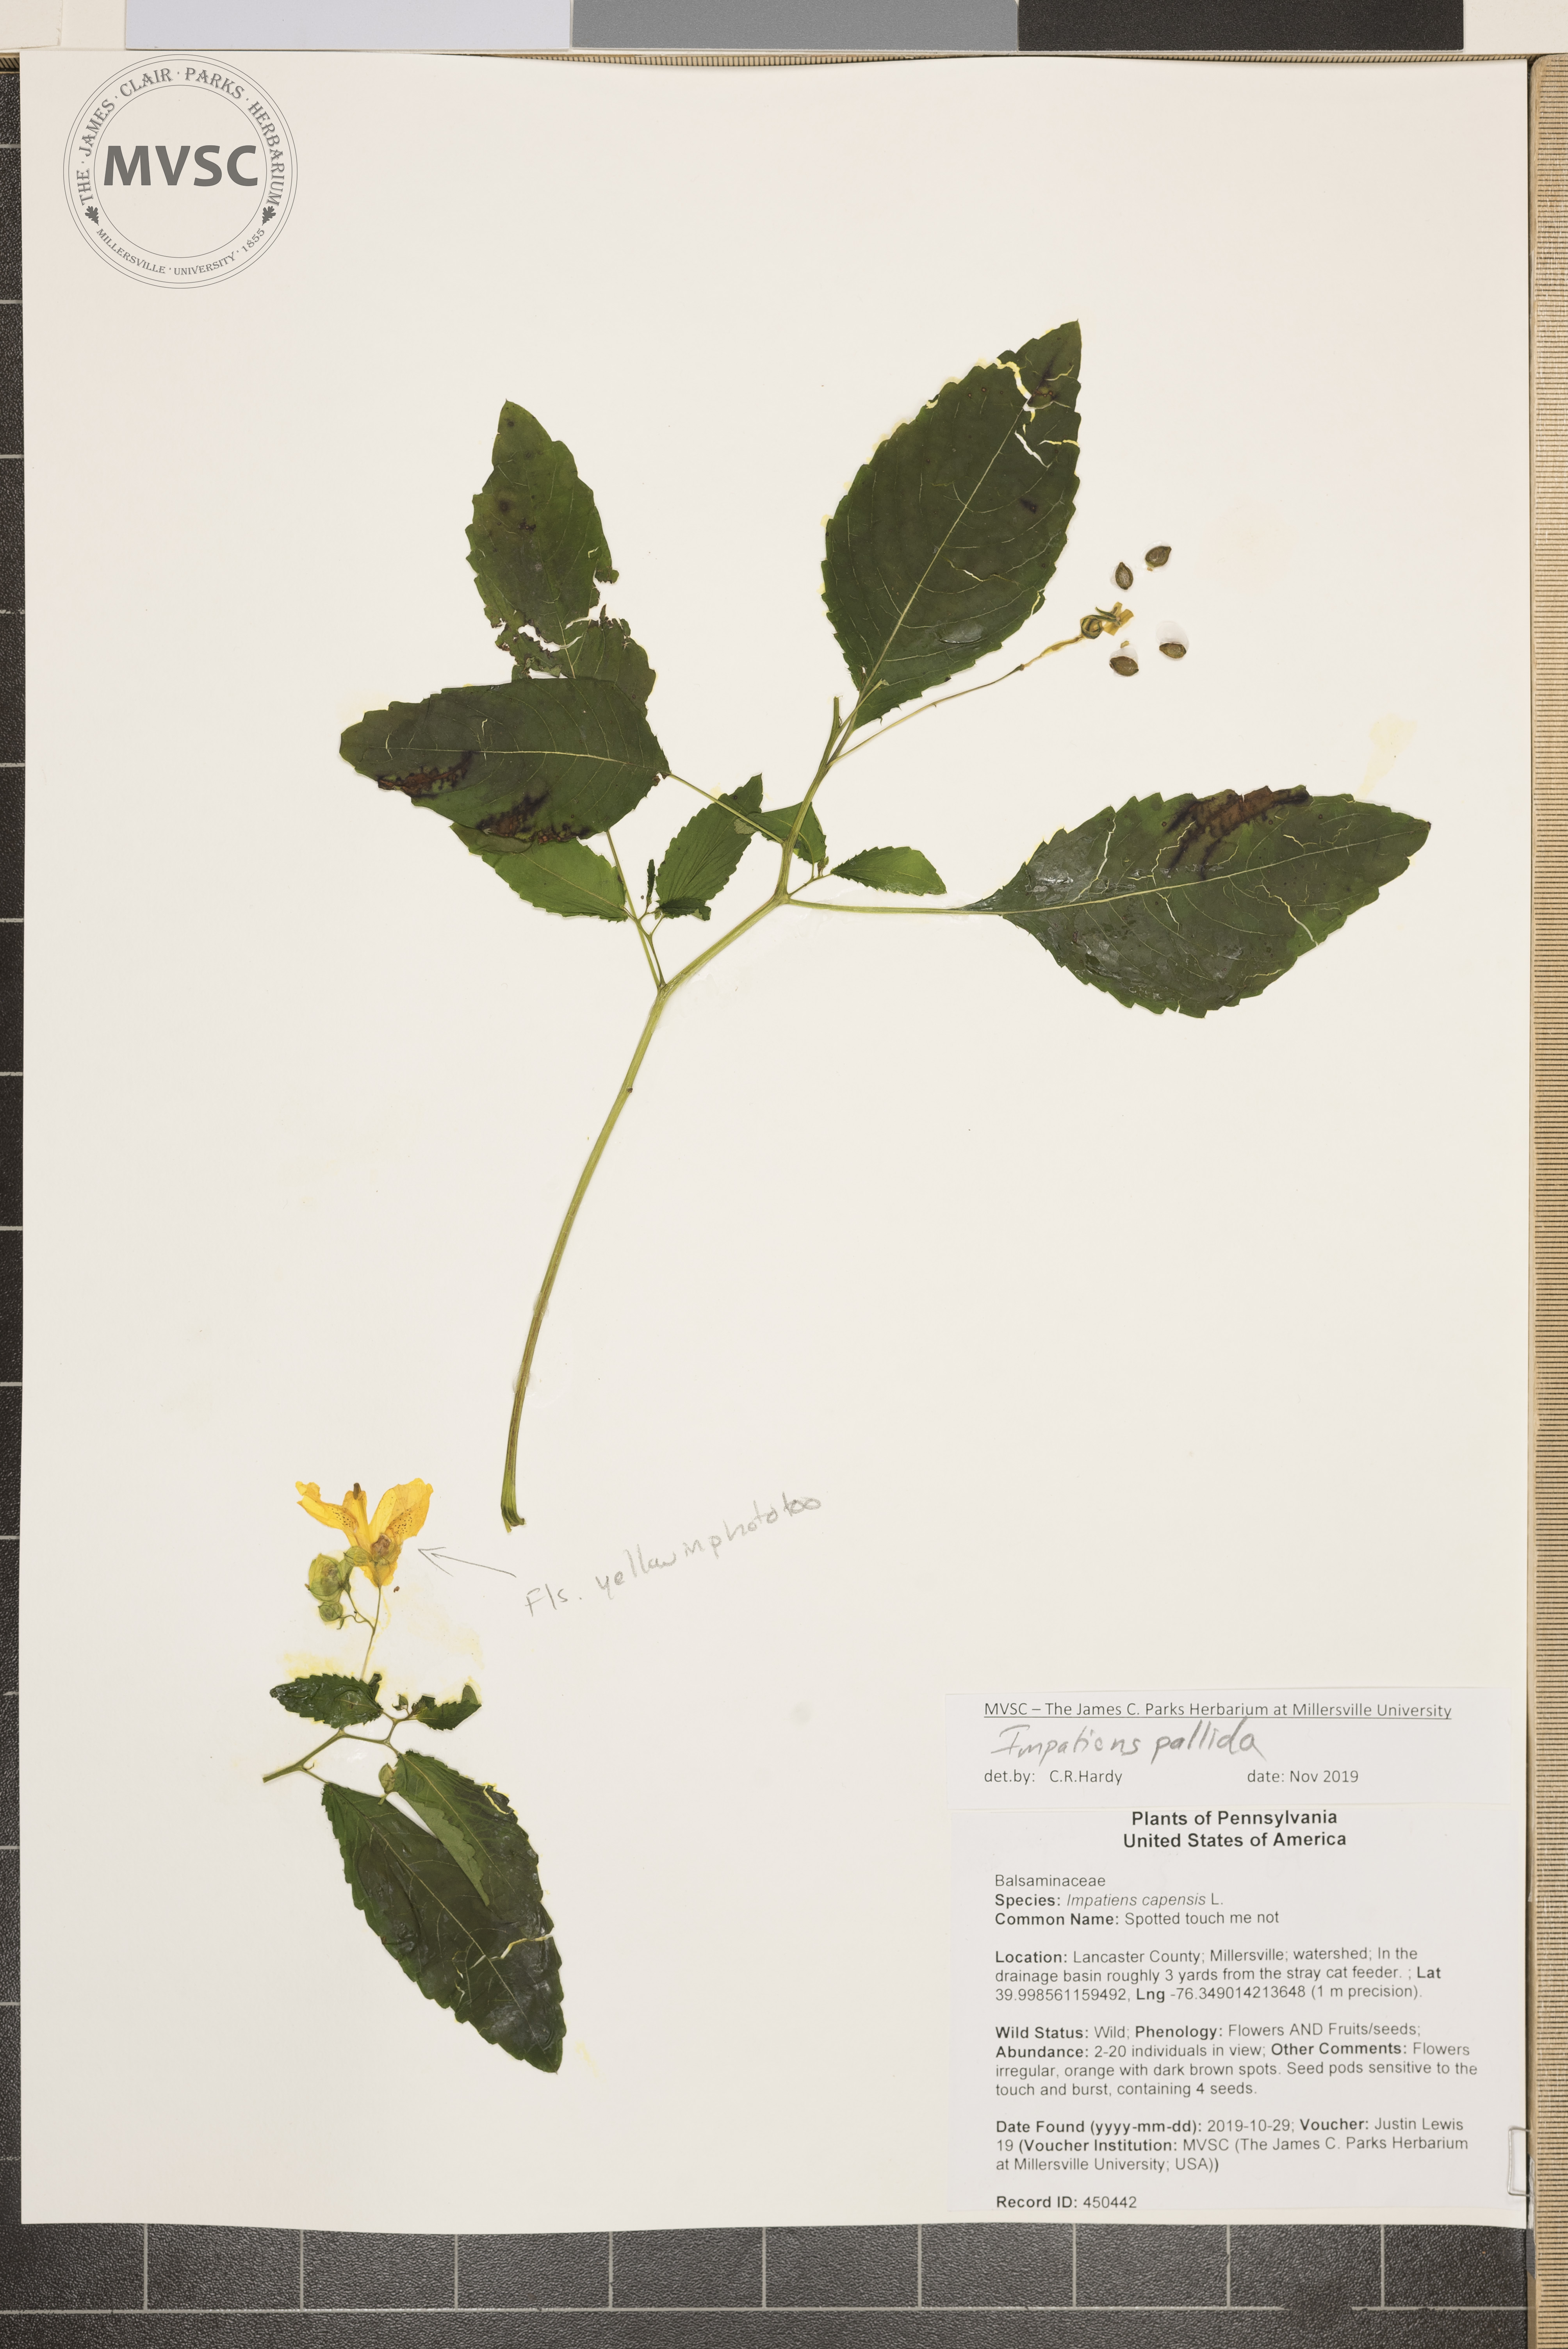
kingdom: Plantae
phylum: Tracheophyta
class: Magnoliopsida
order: Ericales
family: Balsaminaceae
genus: Impatiens
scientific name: Impatiens pallida
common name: touch-me-not
